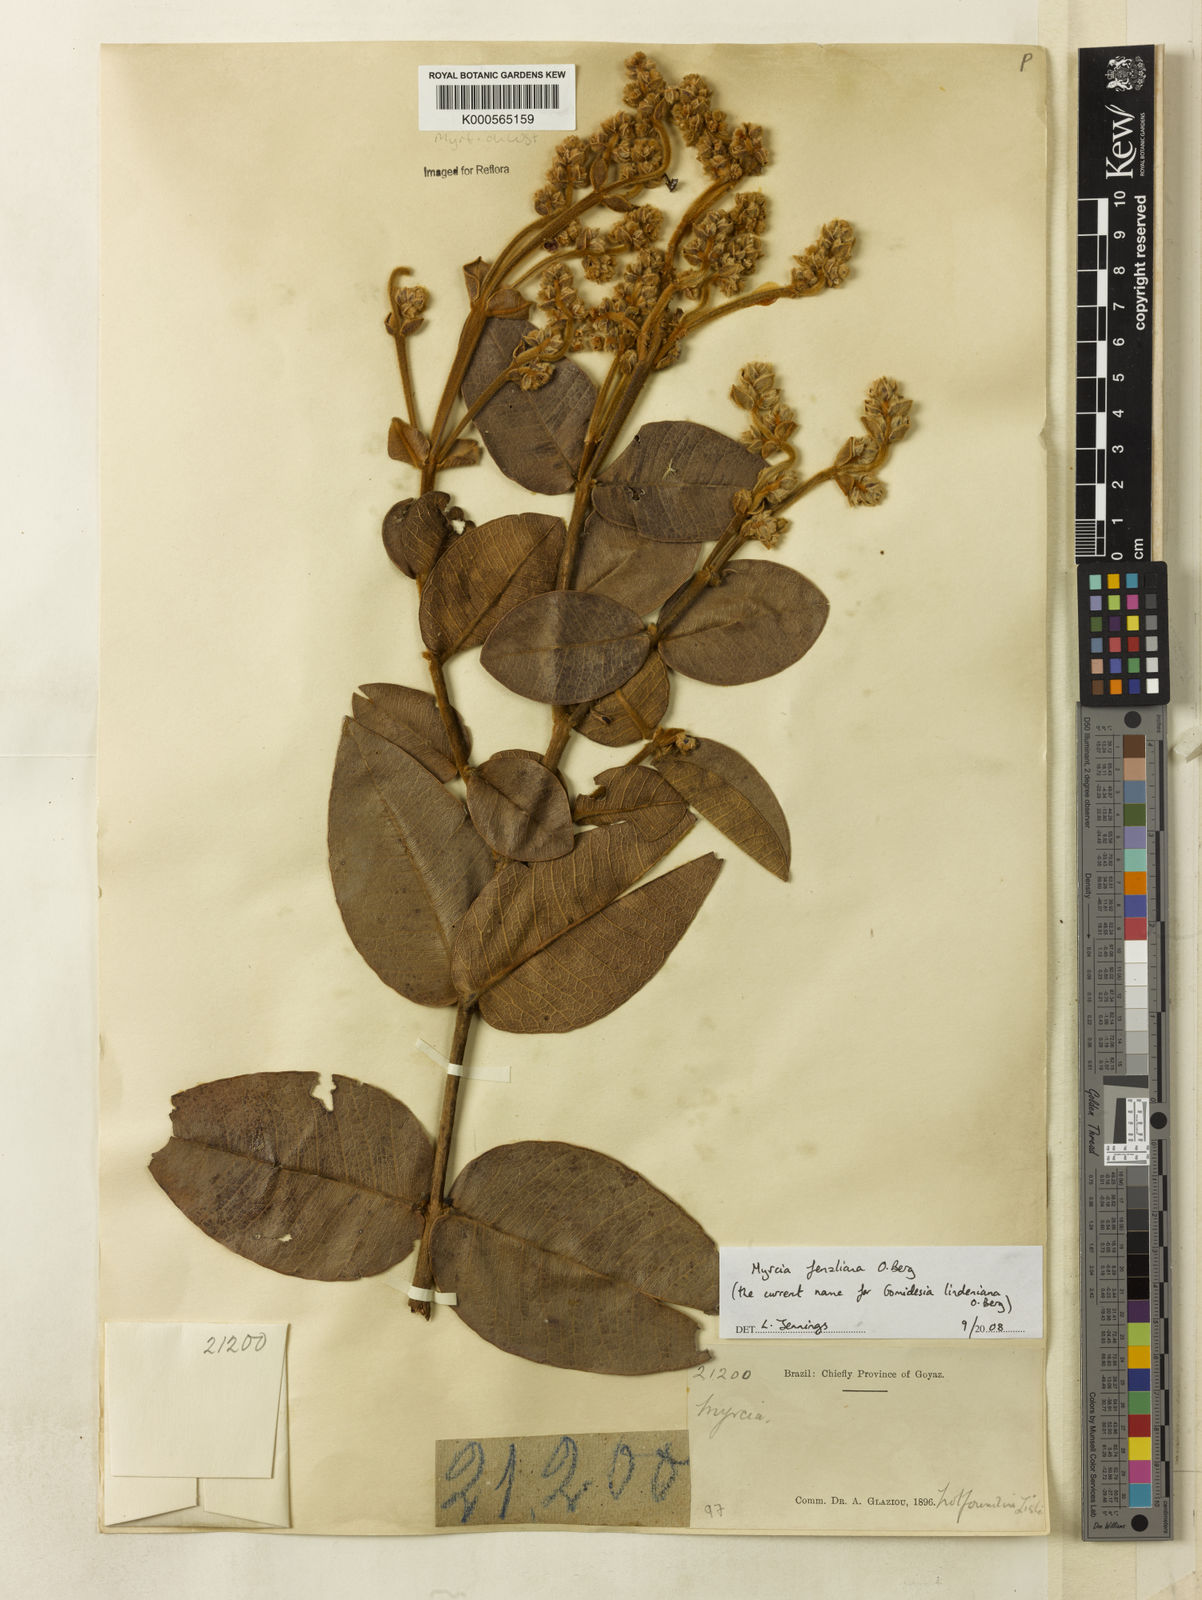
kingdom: Plantae
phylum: Tracheophyta
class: Magnoliopsida
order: Myrtales
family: Myrtaceae
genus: Myrcia
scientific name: Myrcia fenzliana
